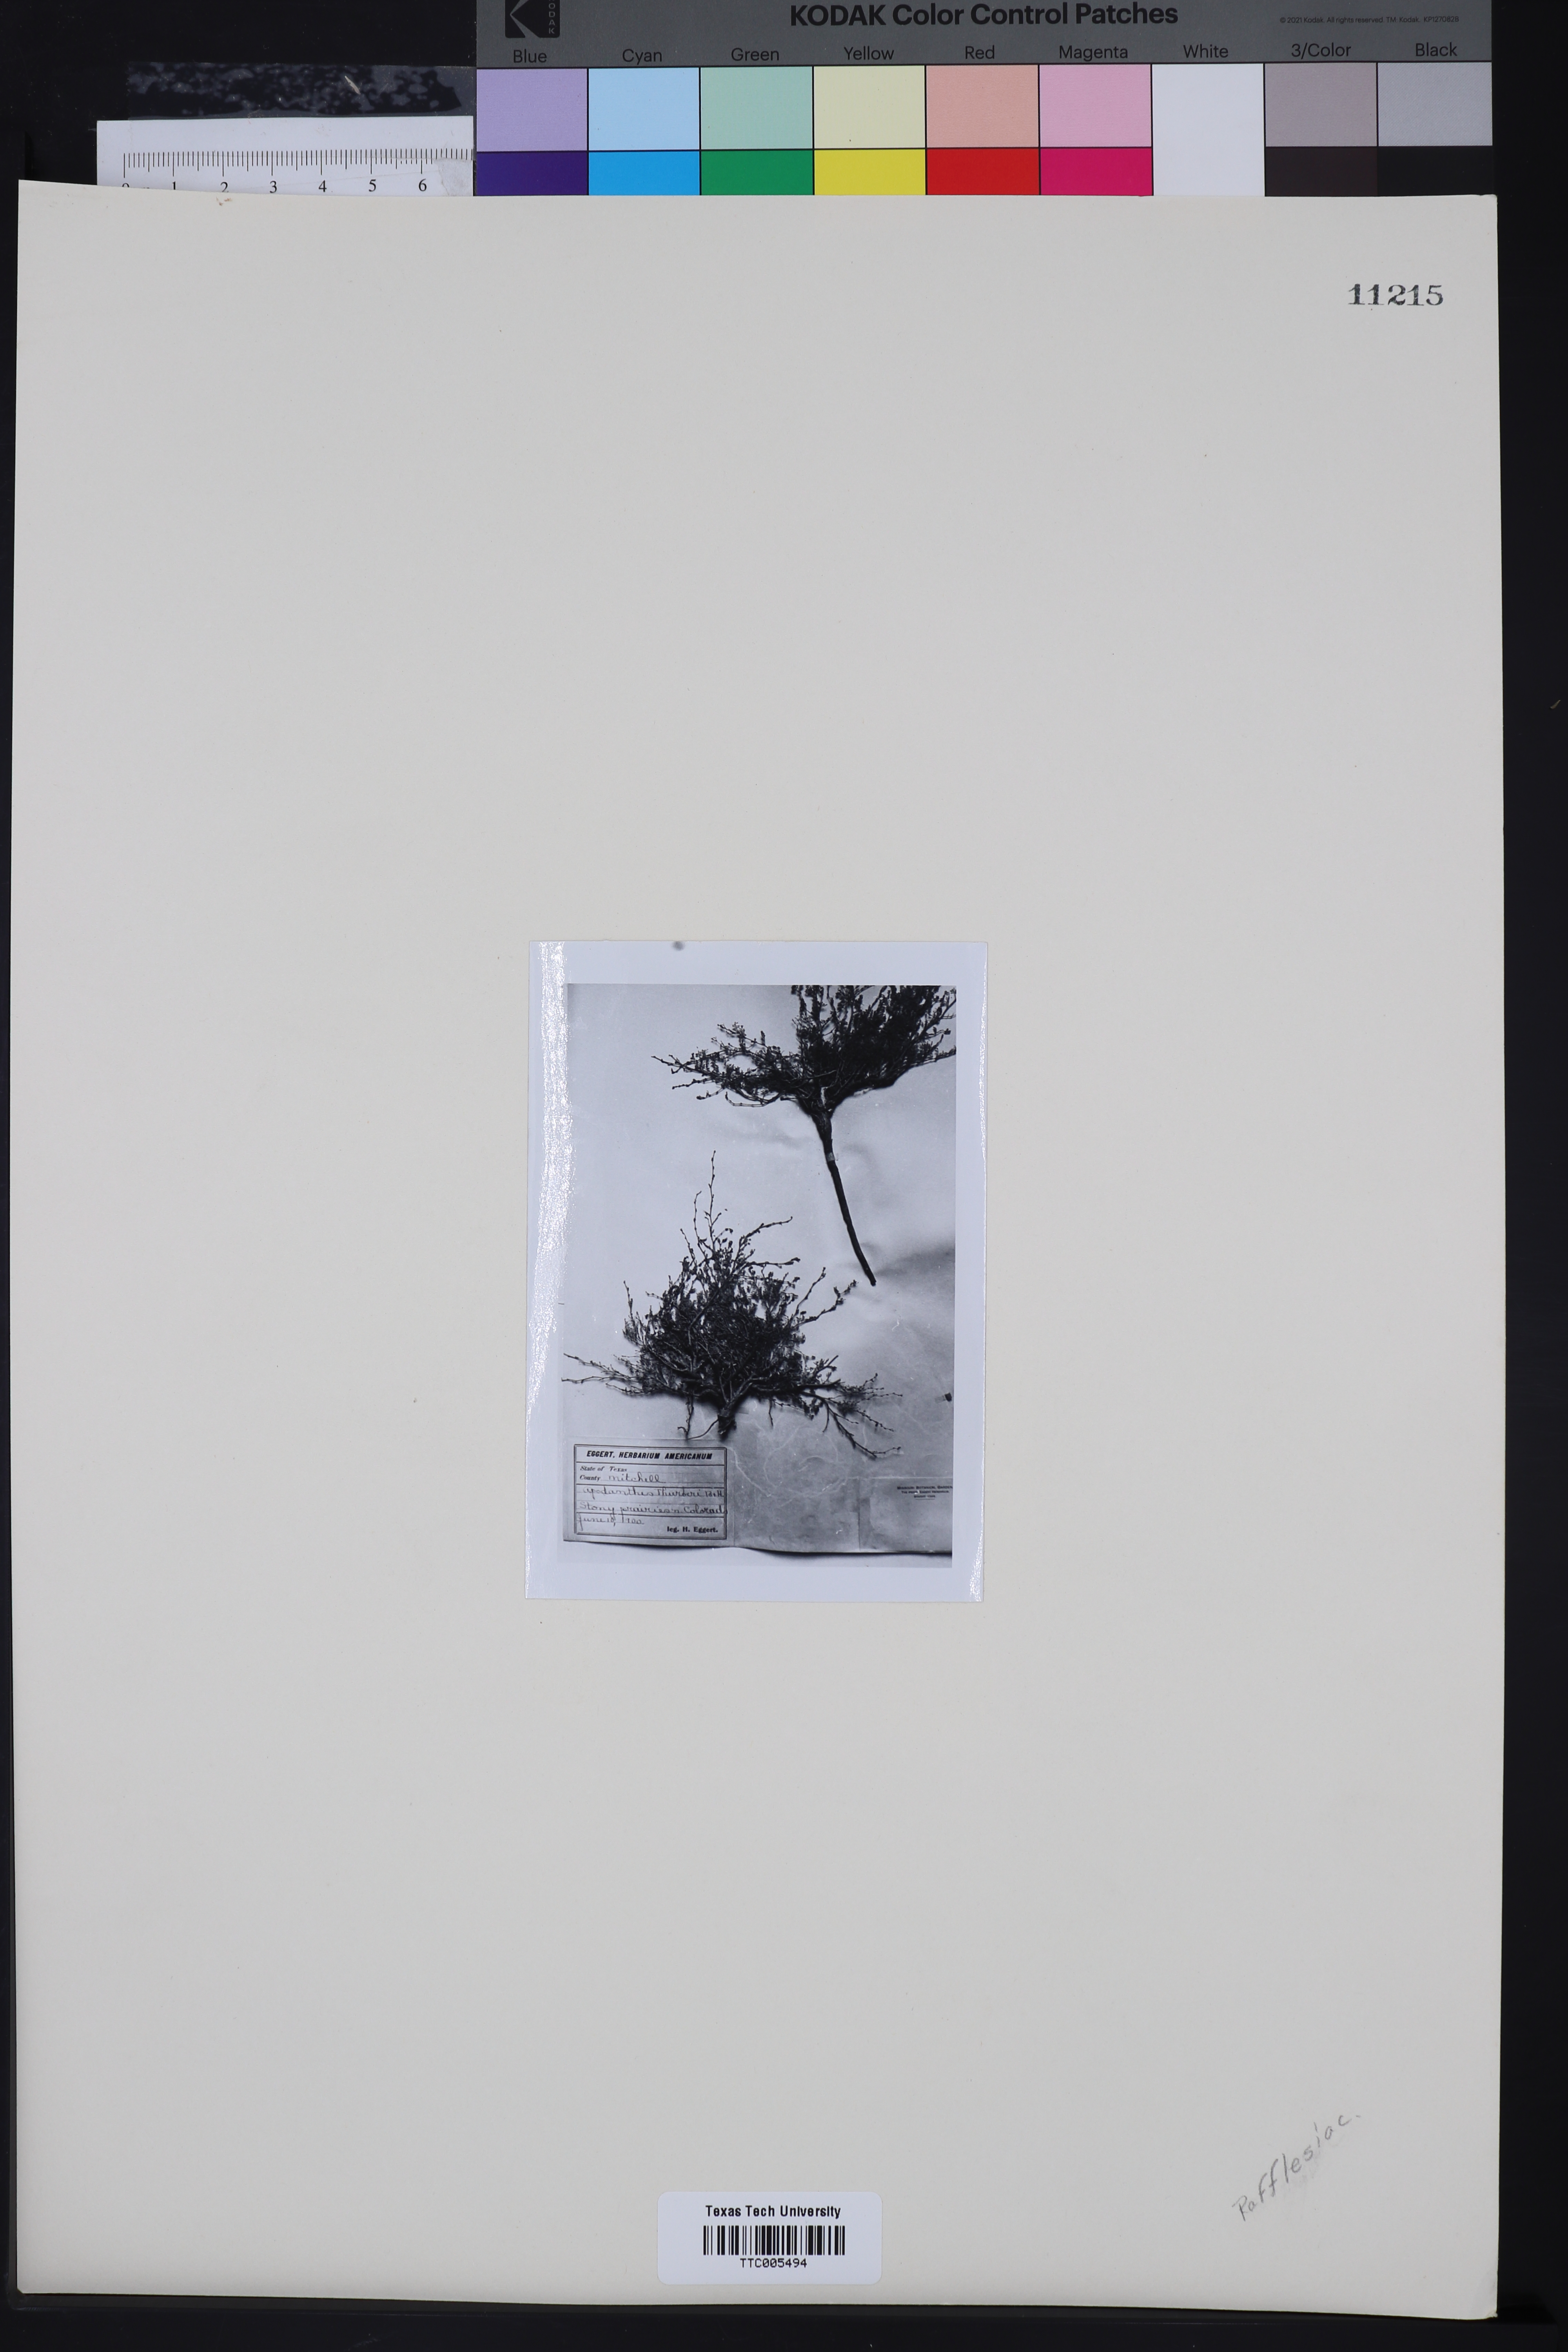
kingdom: Plantae
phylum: Tracheophyta
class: Magnoliopsida
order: Cucurbitales
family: Apodanthaceae
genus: Pilostyles
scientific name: Pilostyles thurberi
